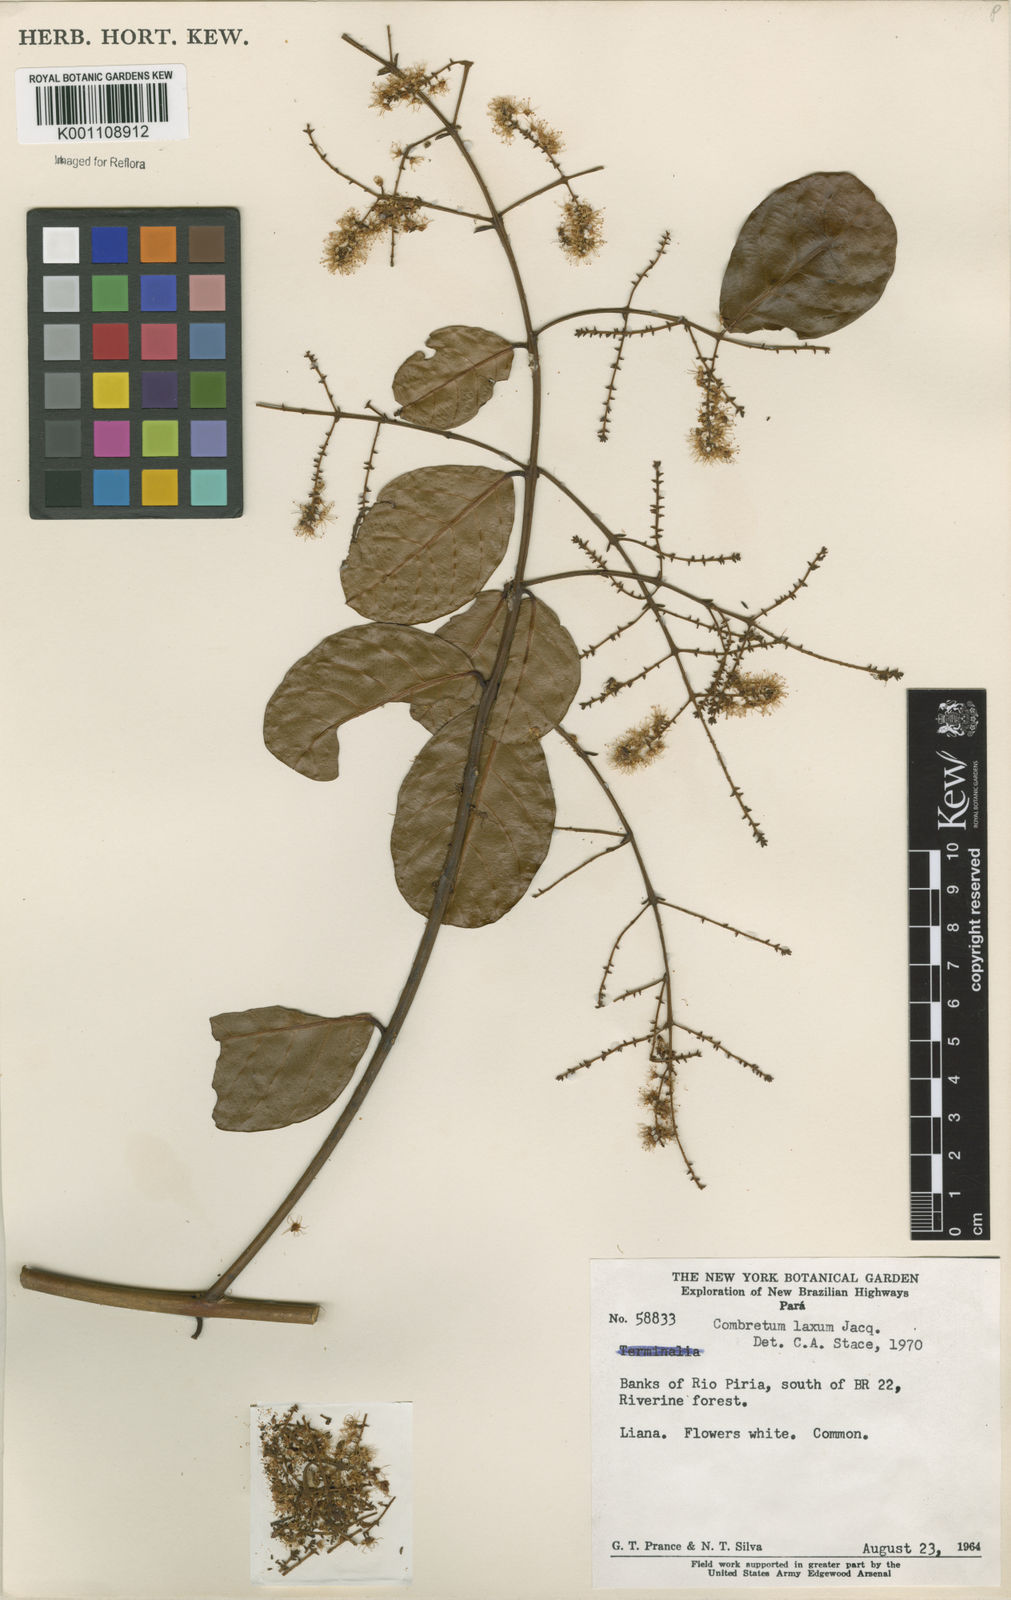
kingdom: Plantae
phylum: Tracheophyta
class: Magnoliopsida
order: Myrtales
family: Combretaceae
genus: Combretum
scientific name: Combretum laxum
